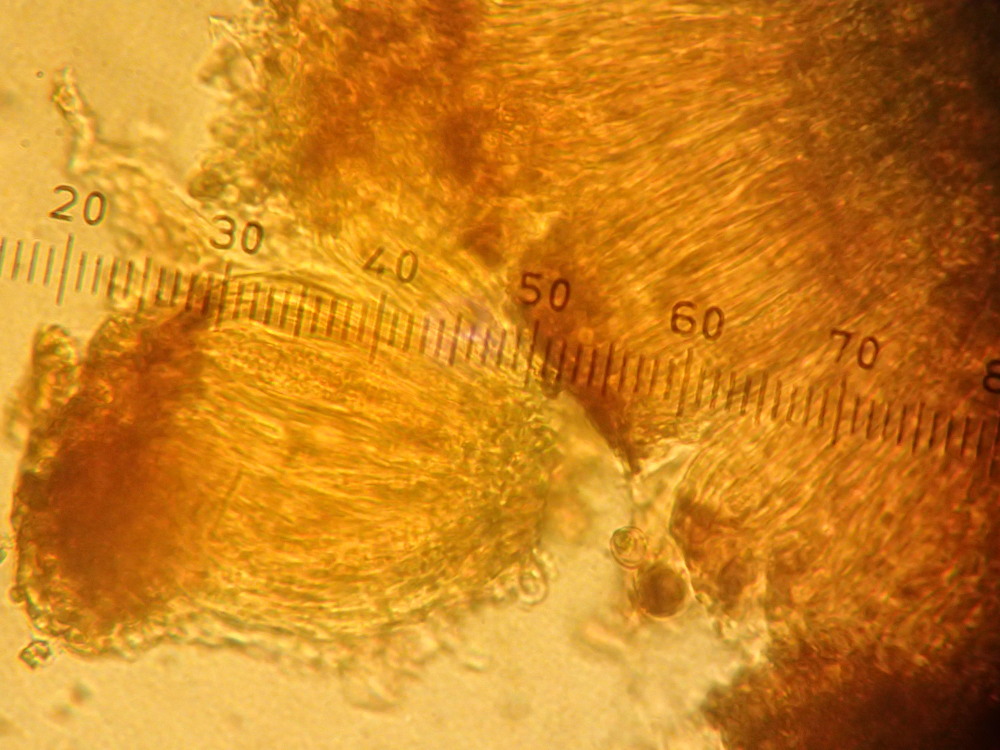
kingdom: Fungi
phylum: Ascomycota
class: Lecanoromycetes
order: Acarosporales
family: Acarosporaceae
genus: Acarospora
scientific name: Acarospora fuscata
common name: brun småsporelav
